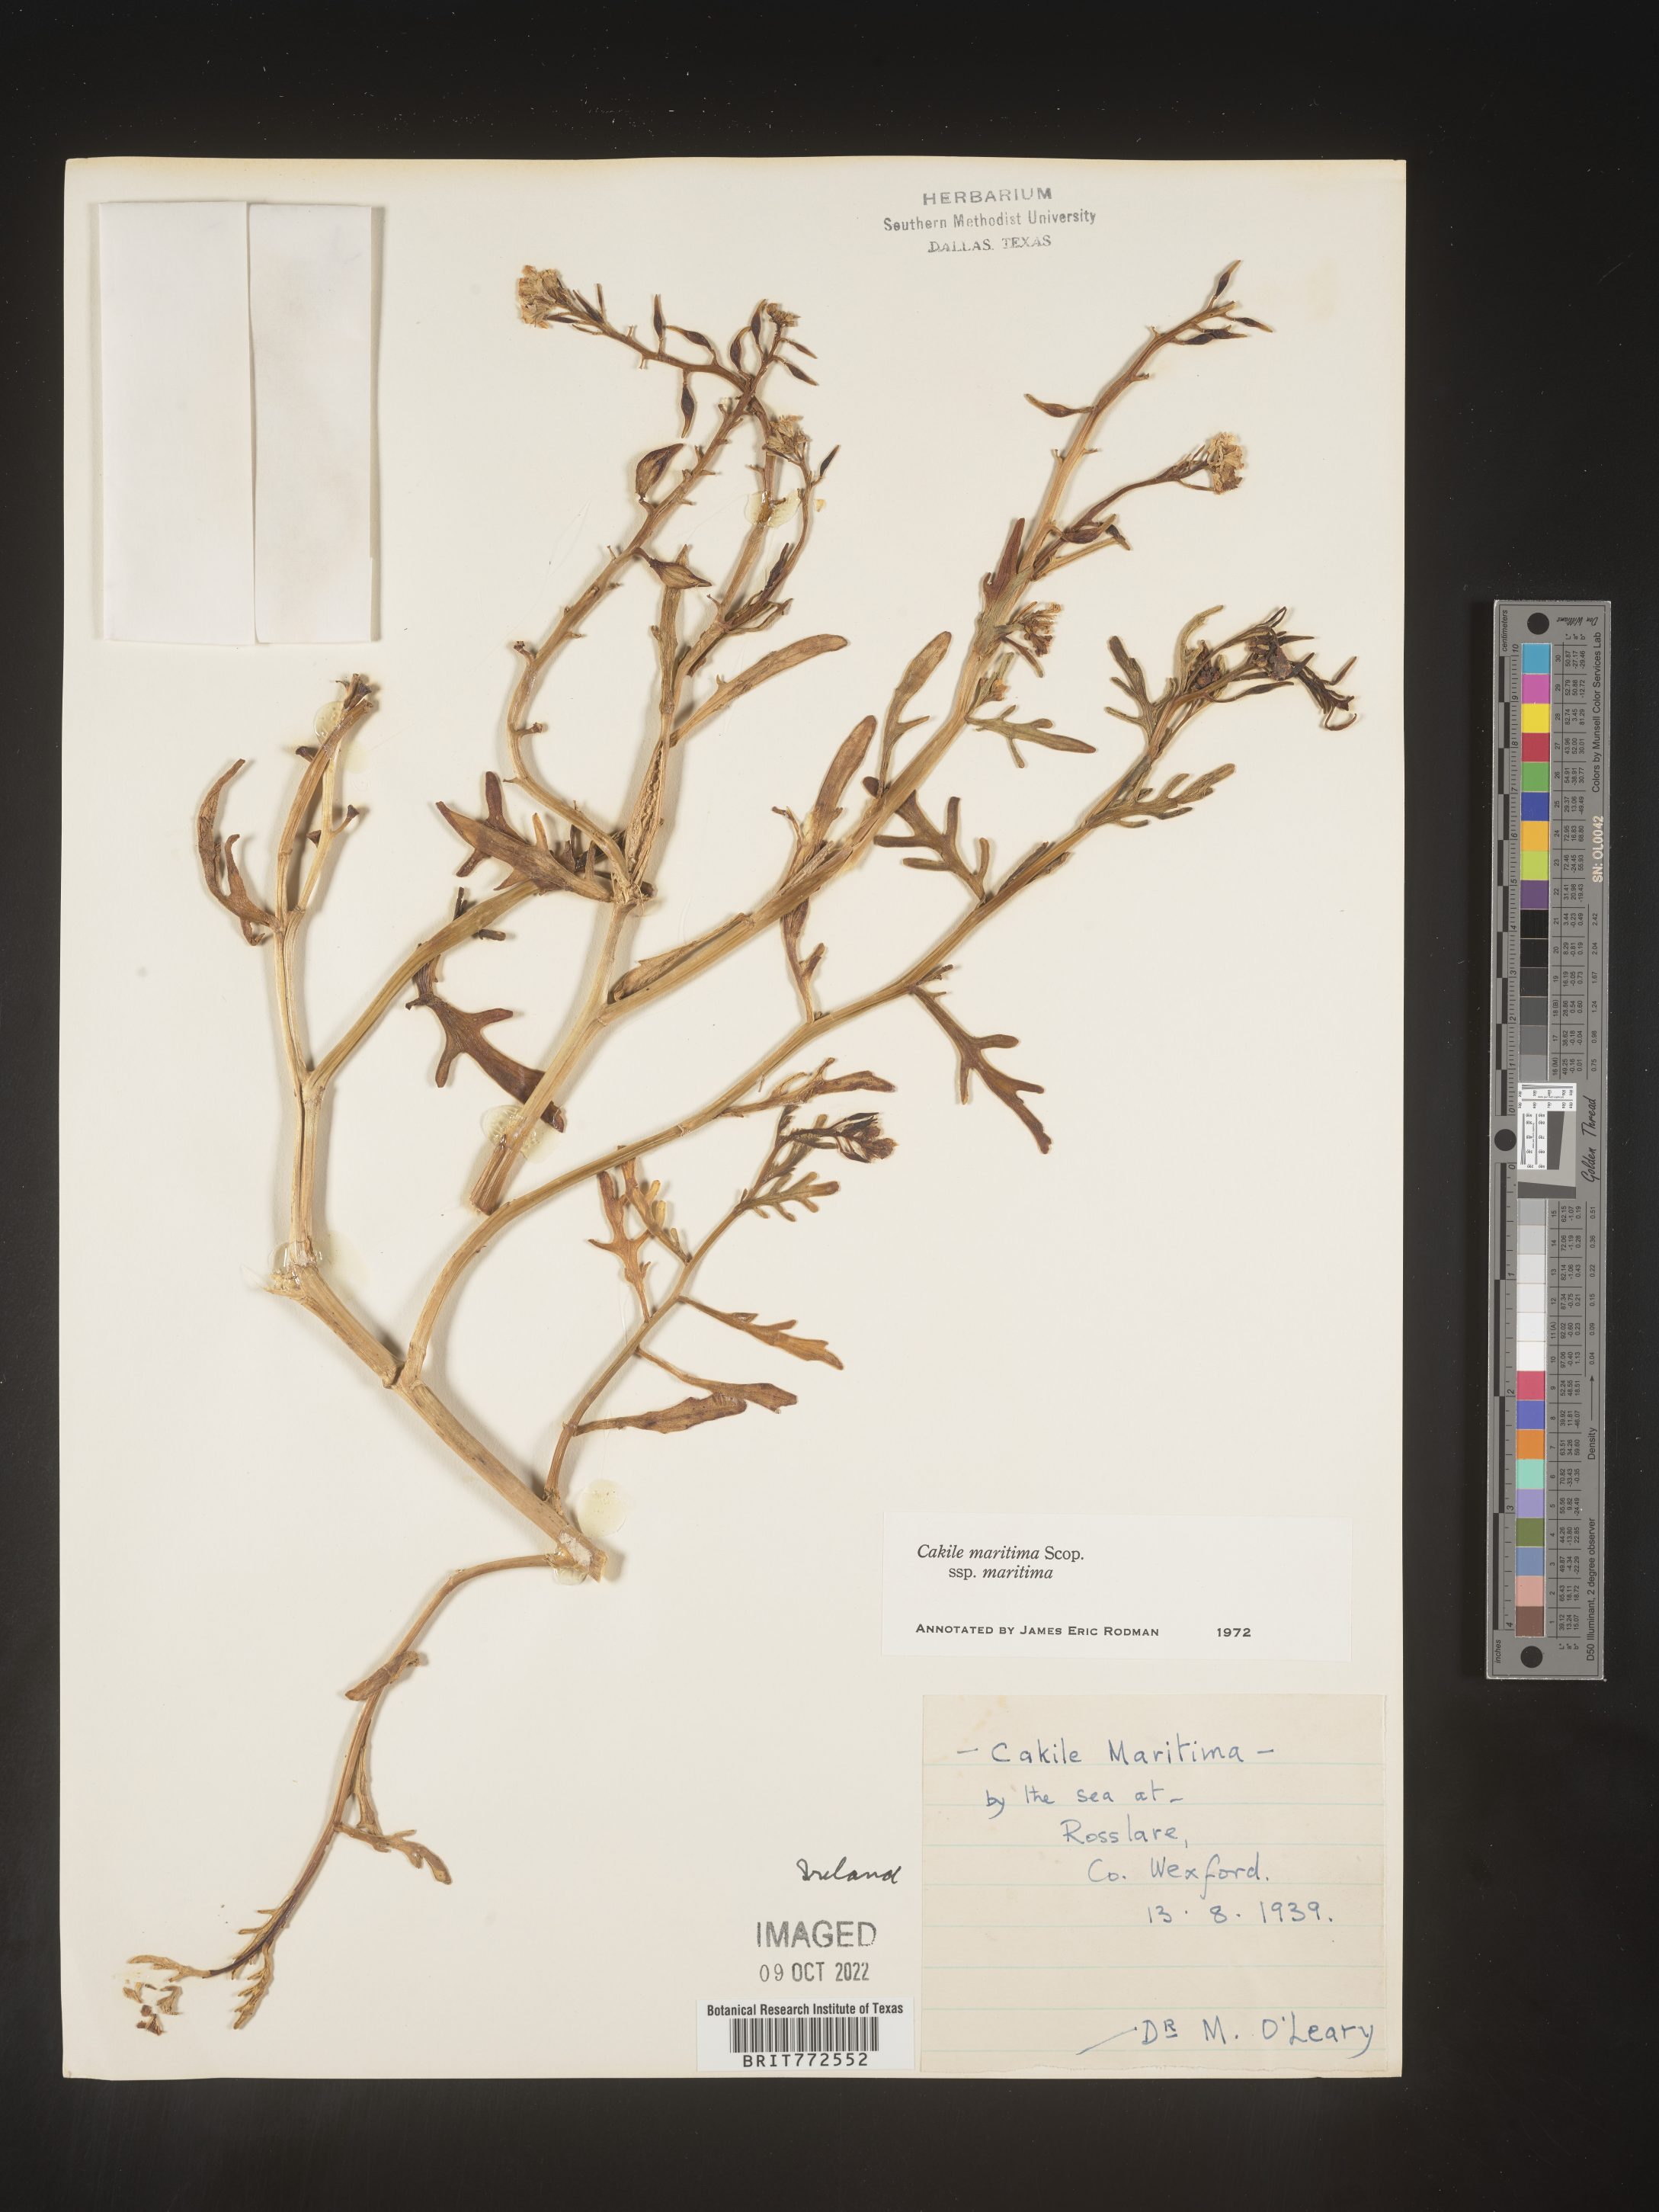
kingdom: Plantae
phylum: Tracheophyta
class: Magnoliopsida
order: Brassicales
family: Brassicaceae
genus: Cakile
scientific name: Cakile
